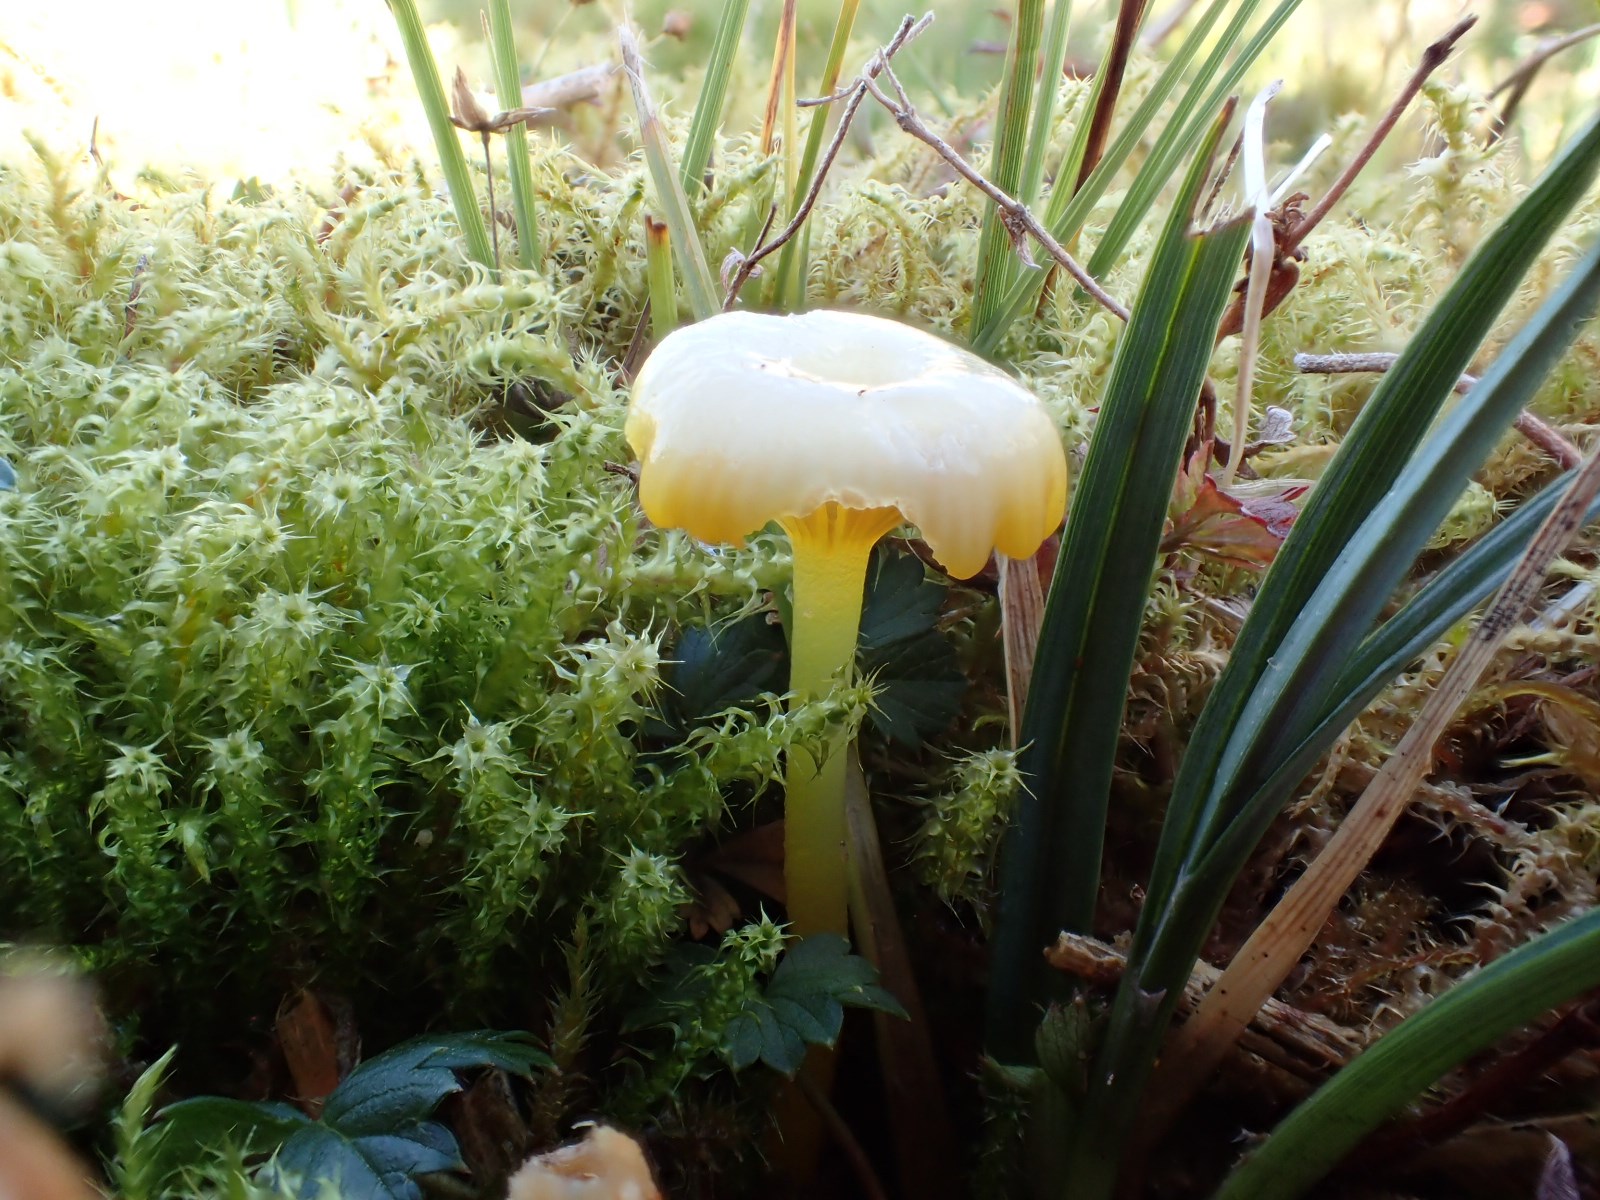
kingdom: Fungi
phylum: Basidiomycota
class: Agaricomycetes
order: Agaricales
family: Hygrophoraceae
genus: Gloioxanthomyces
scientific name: Gloioxanthomyces vitellinus
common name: kromgul vokshat
